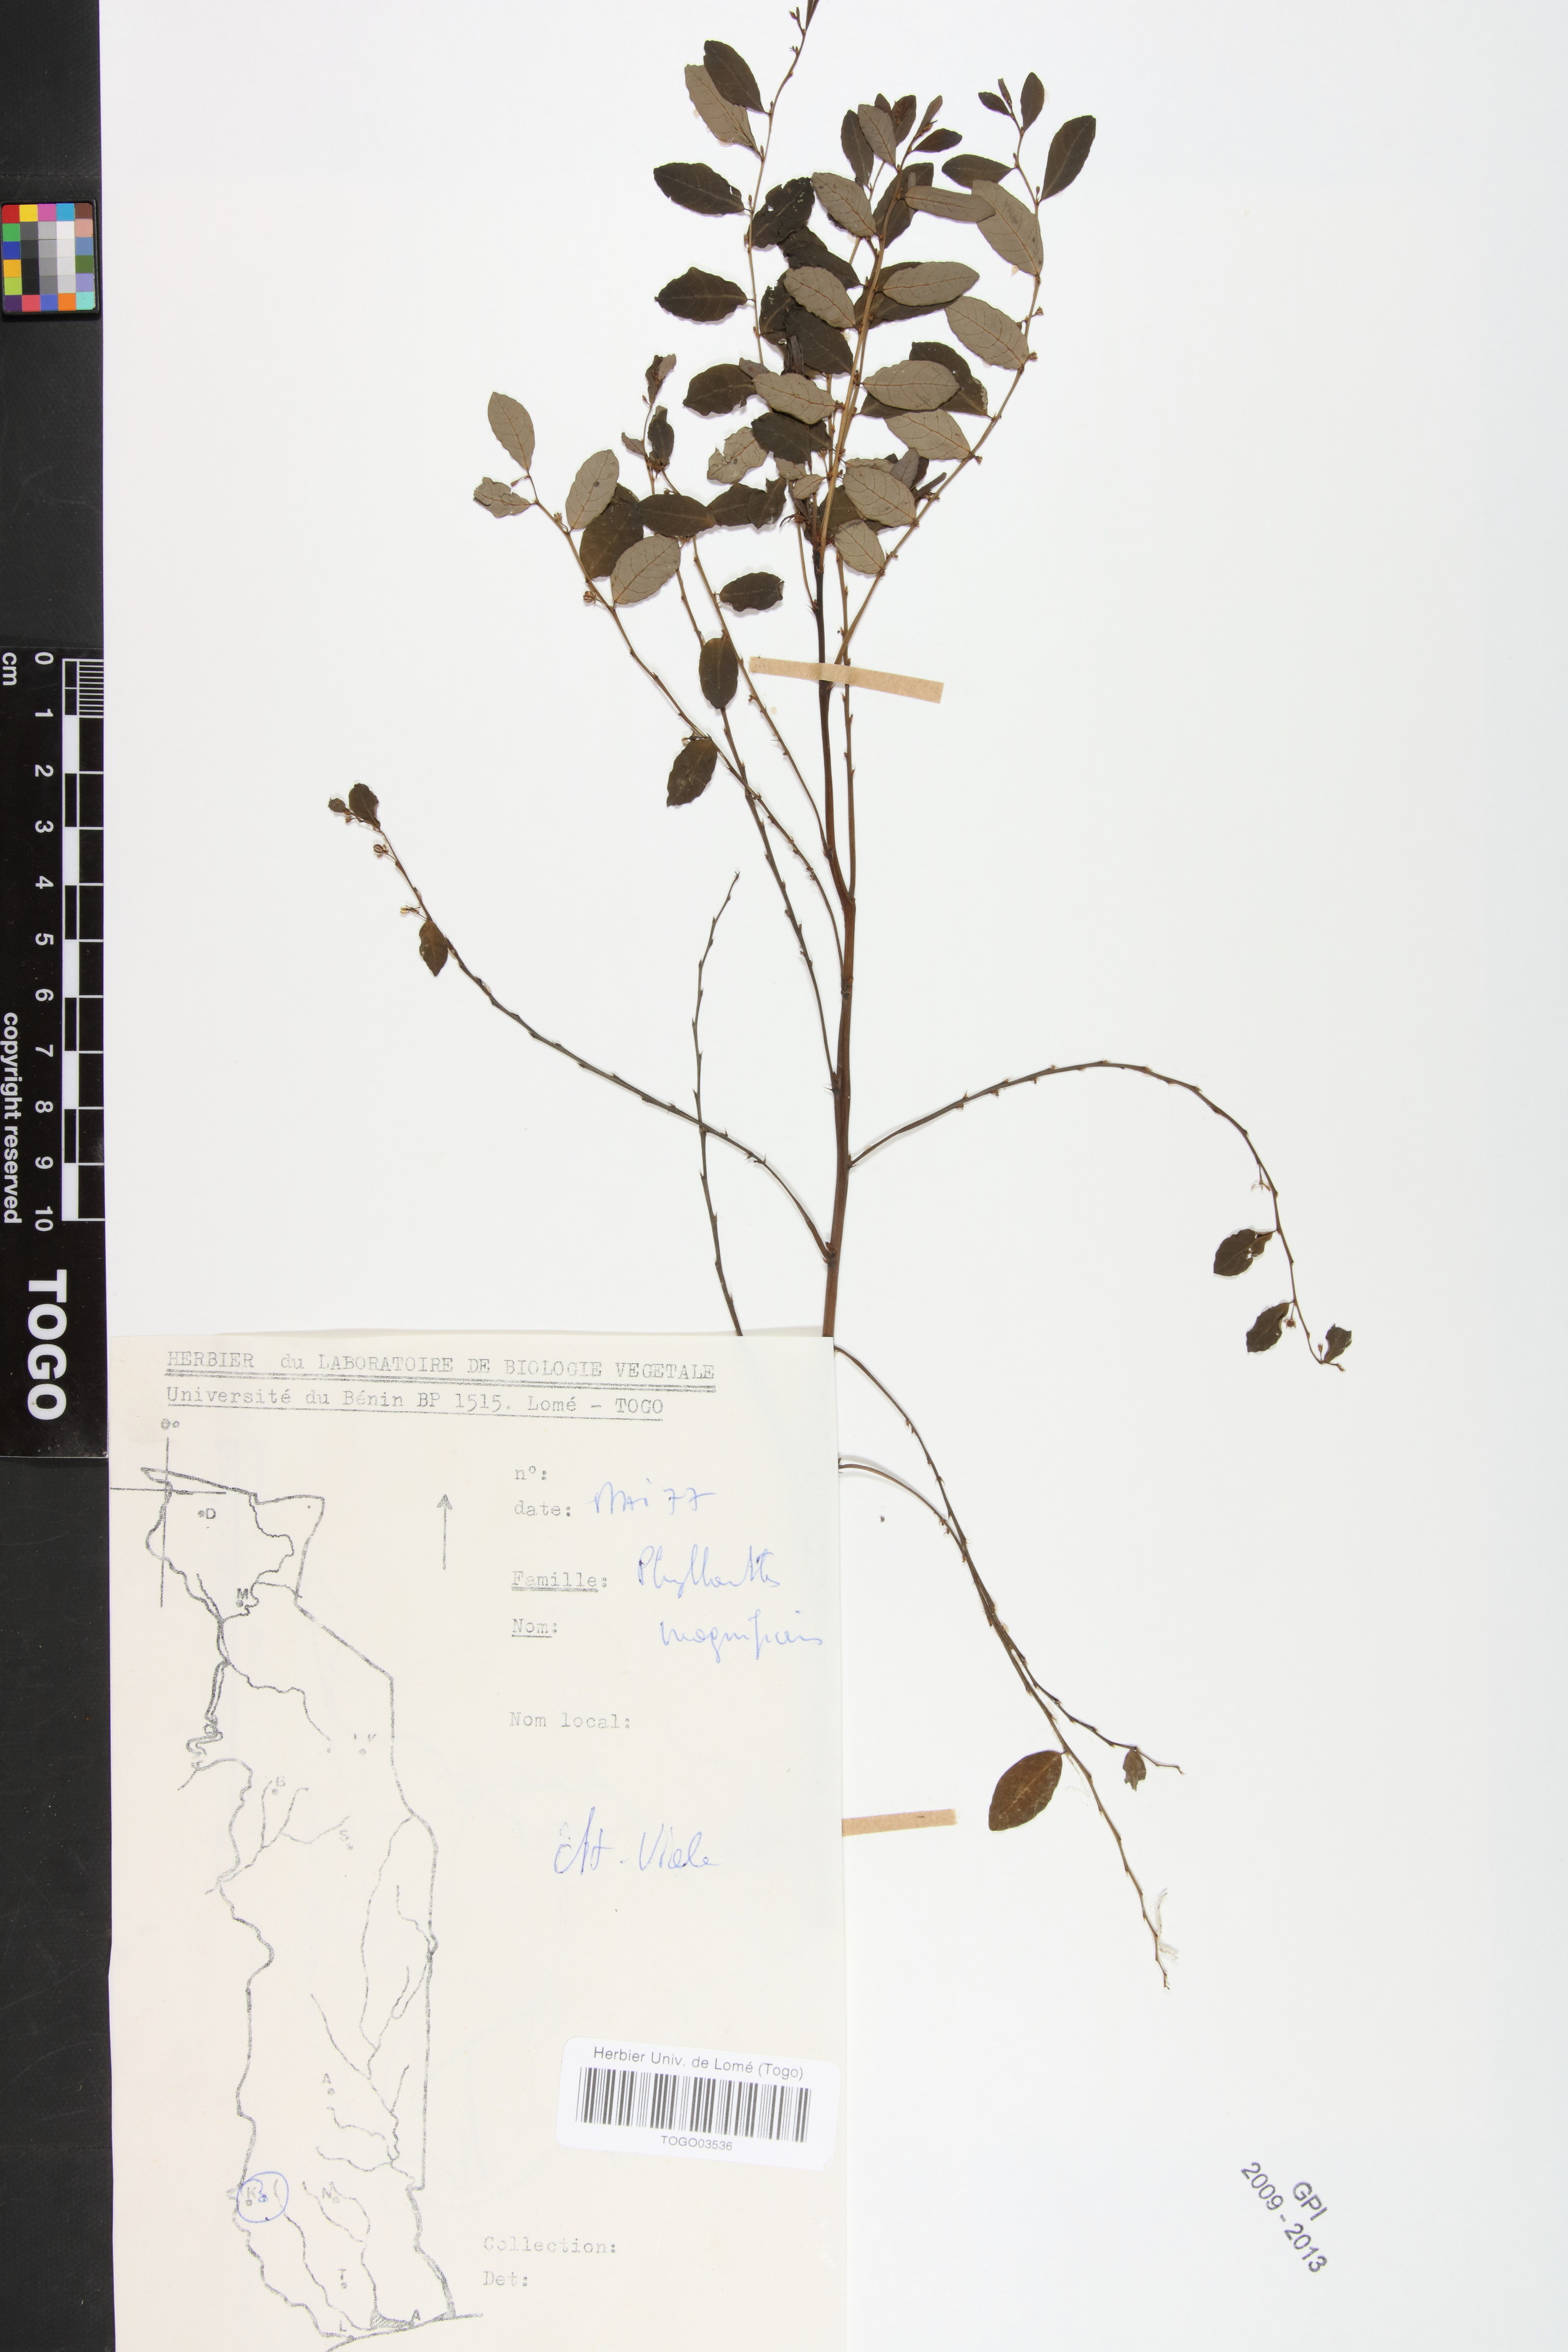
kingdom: Plantae
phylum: Tracheophyta
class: Magnoliopsida
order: Malpighiales
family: Phyllanthaceae
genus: Phyllanthus
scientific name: Phyllanthus magnificens
